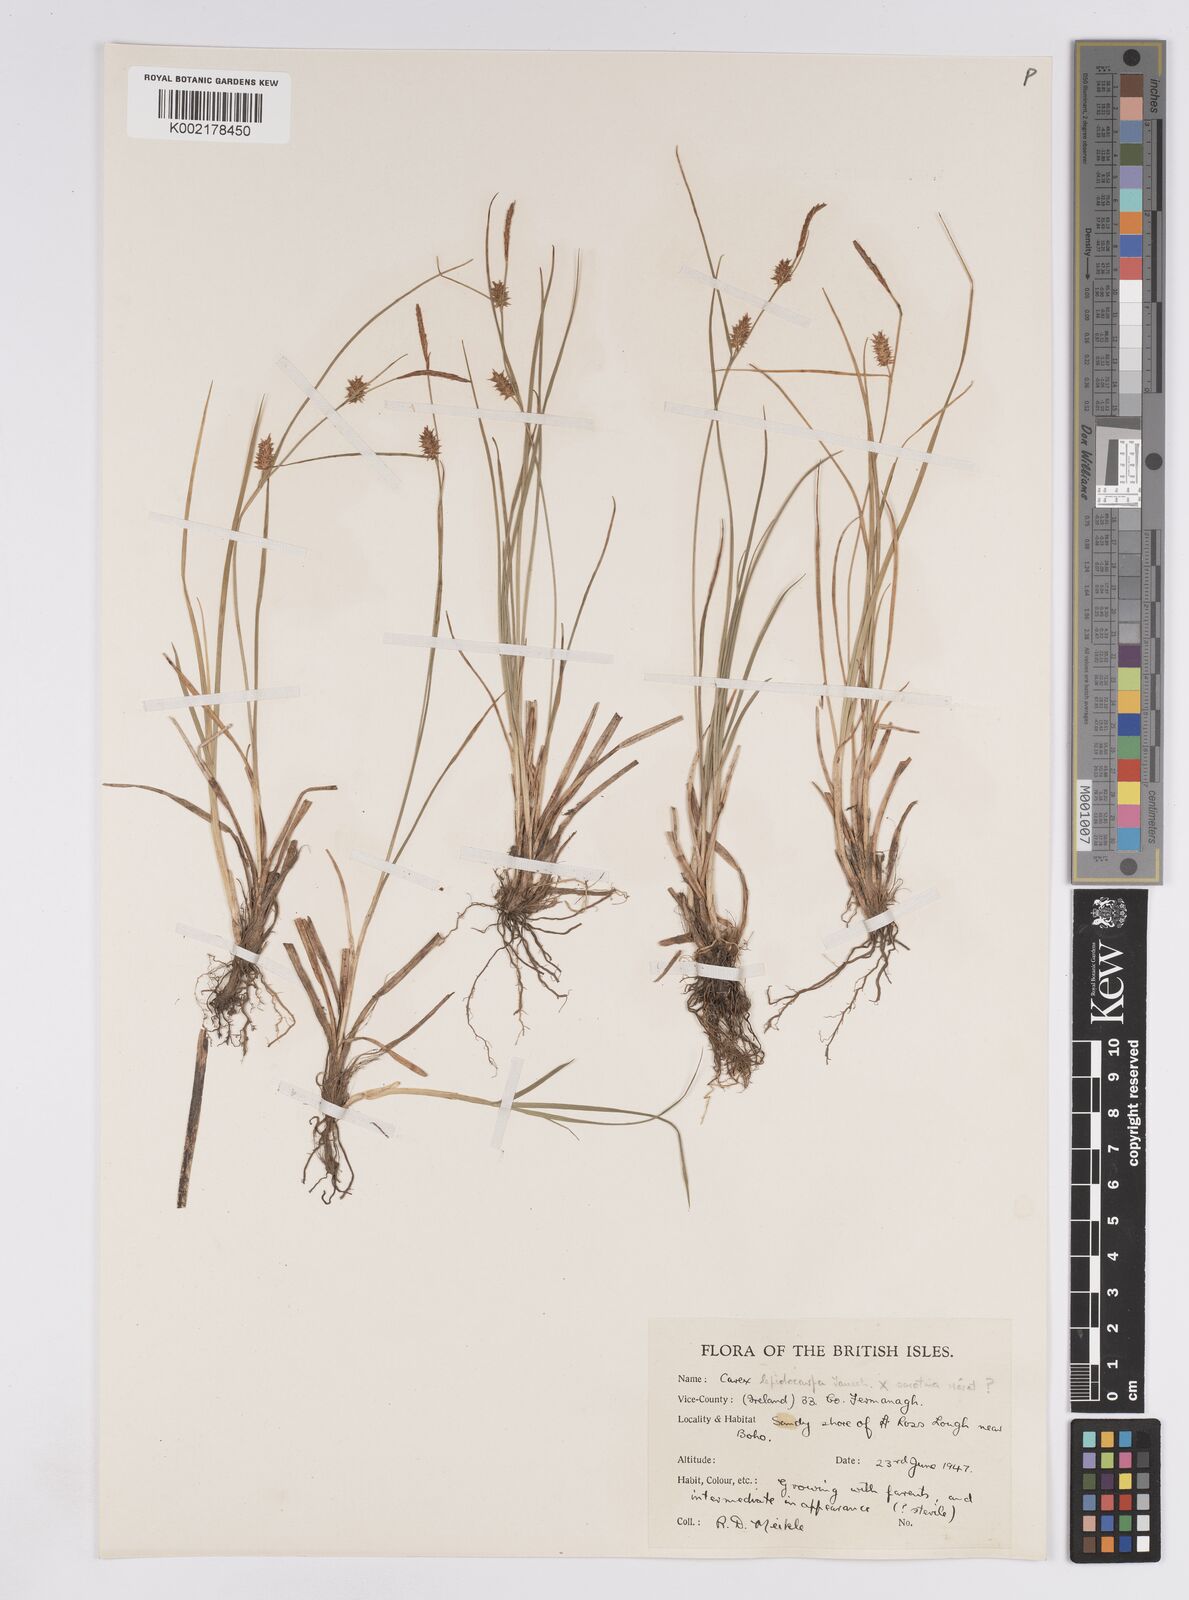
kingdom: Plantae
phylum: Tracheophyta
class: Liliopsida
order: Poales
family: Cyperaceae
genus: Carex
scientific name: Carex lepidocarpa
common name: Long-stalked yellow-sedge
